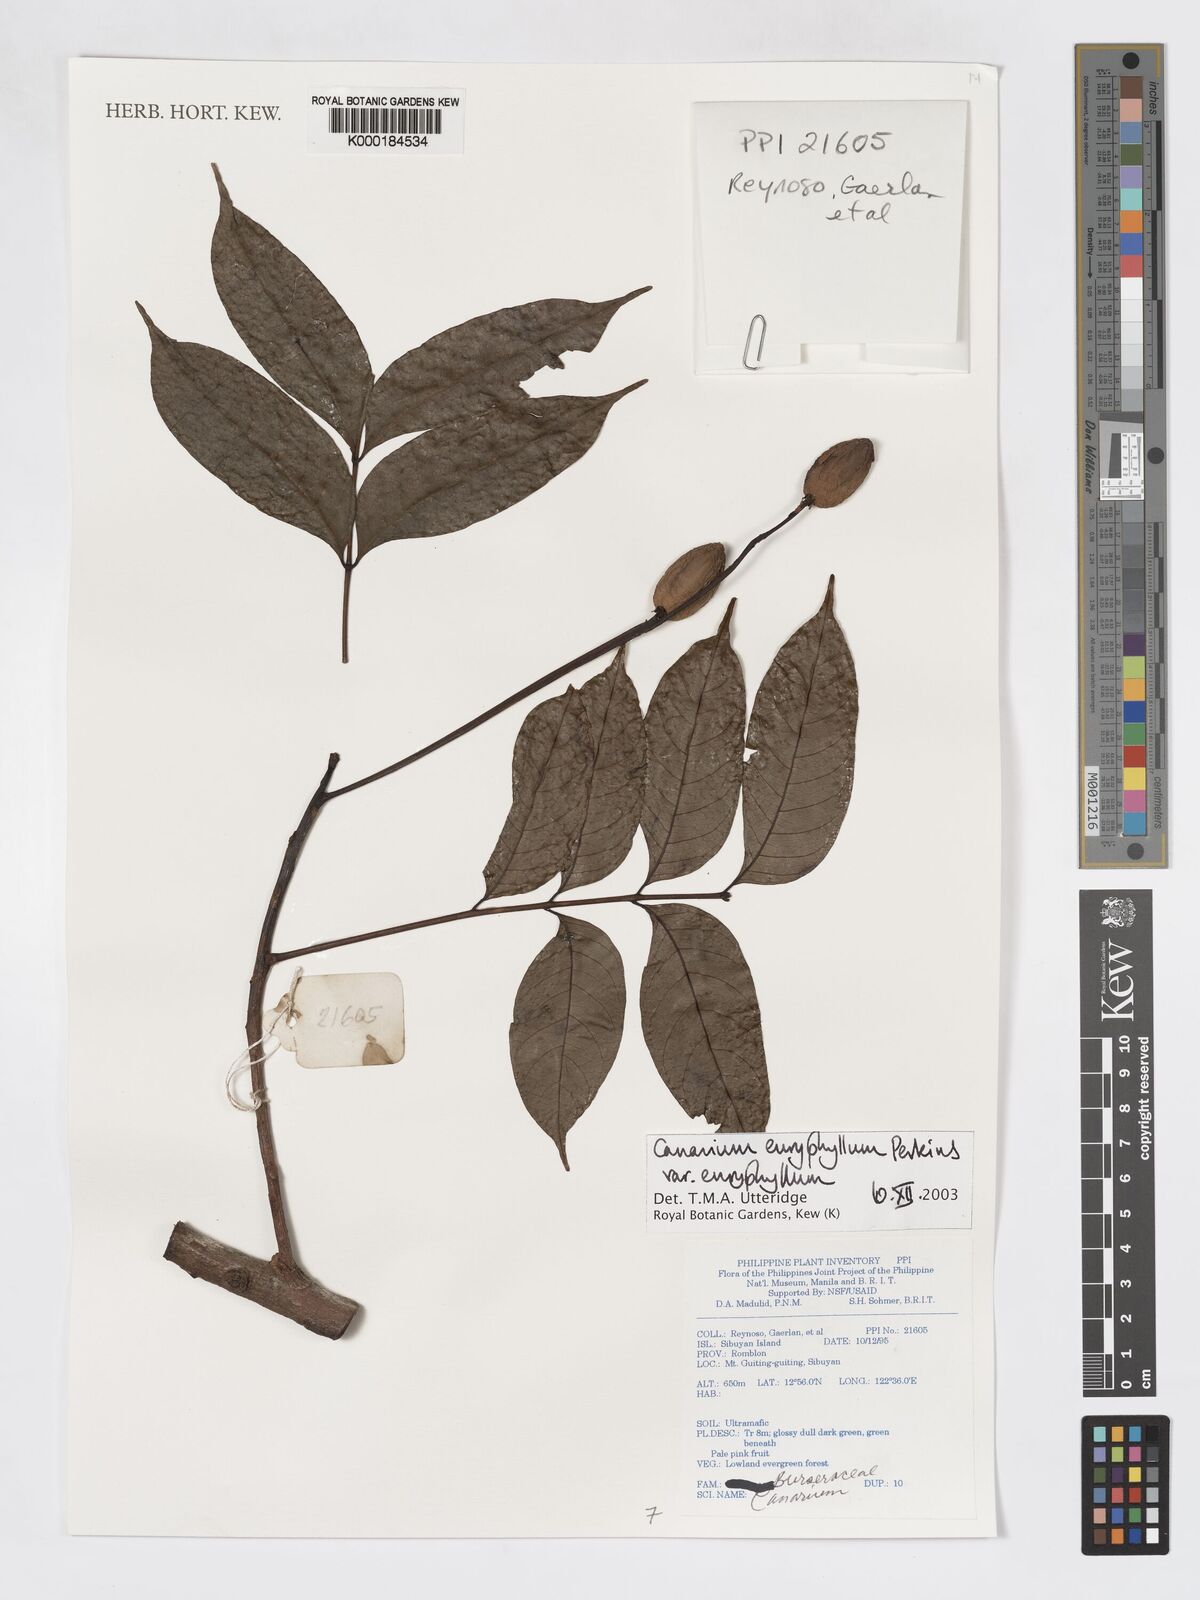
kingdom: Plantae
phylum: Tracheophyta
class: Magnoliopsida
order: Sapindales
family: Burseraceae
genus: Canarium
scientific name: Canarium euryphyllum
